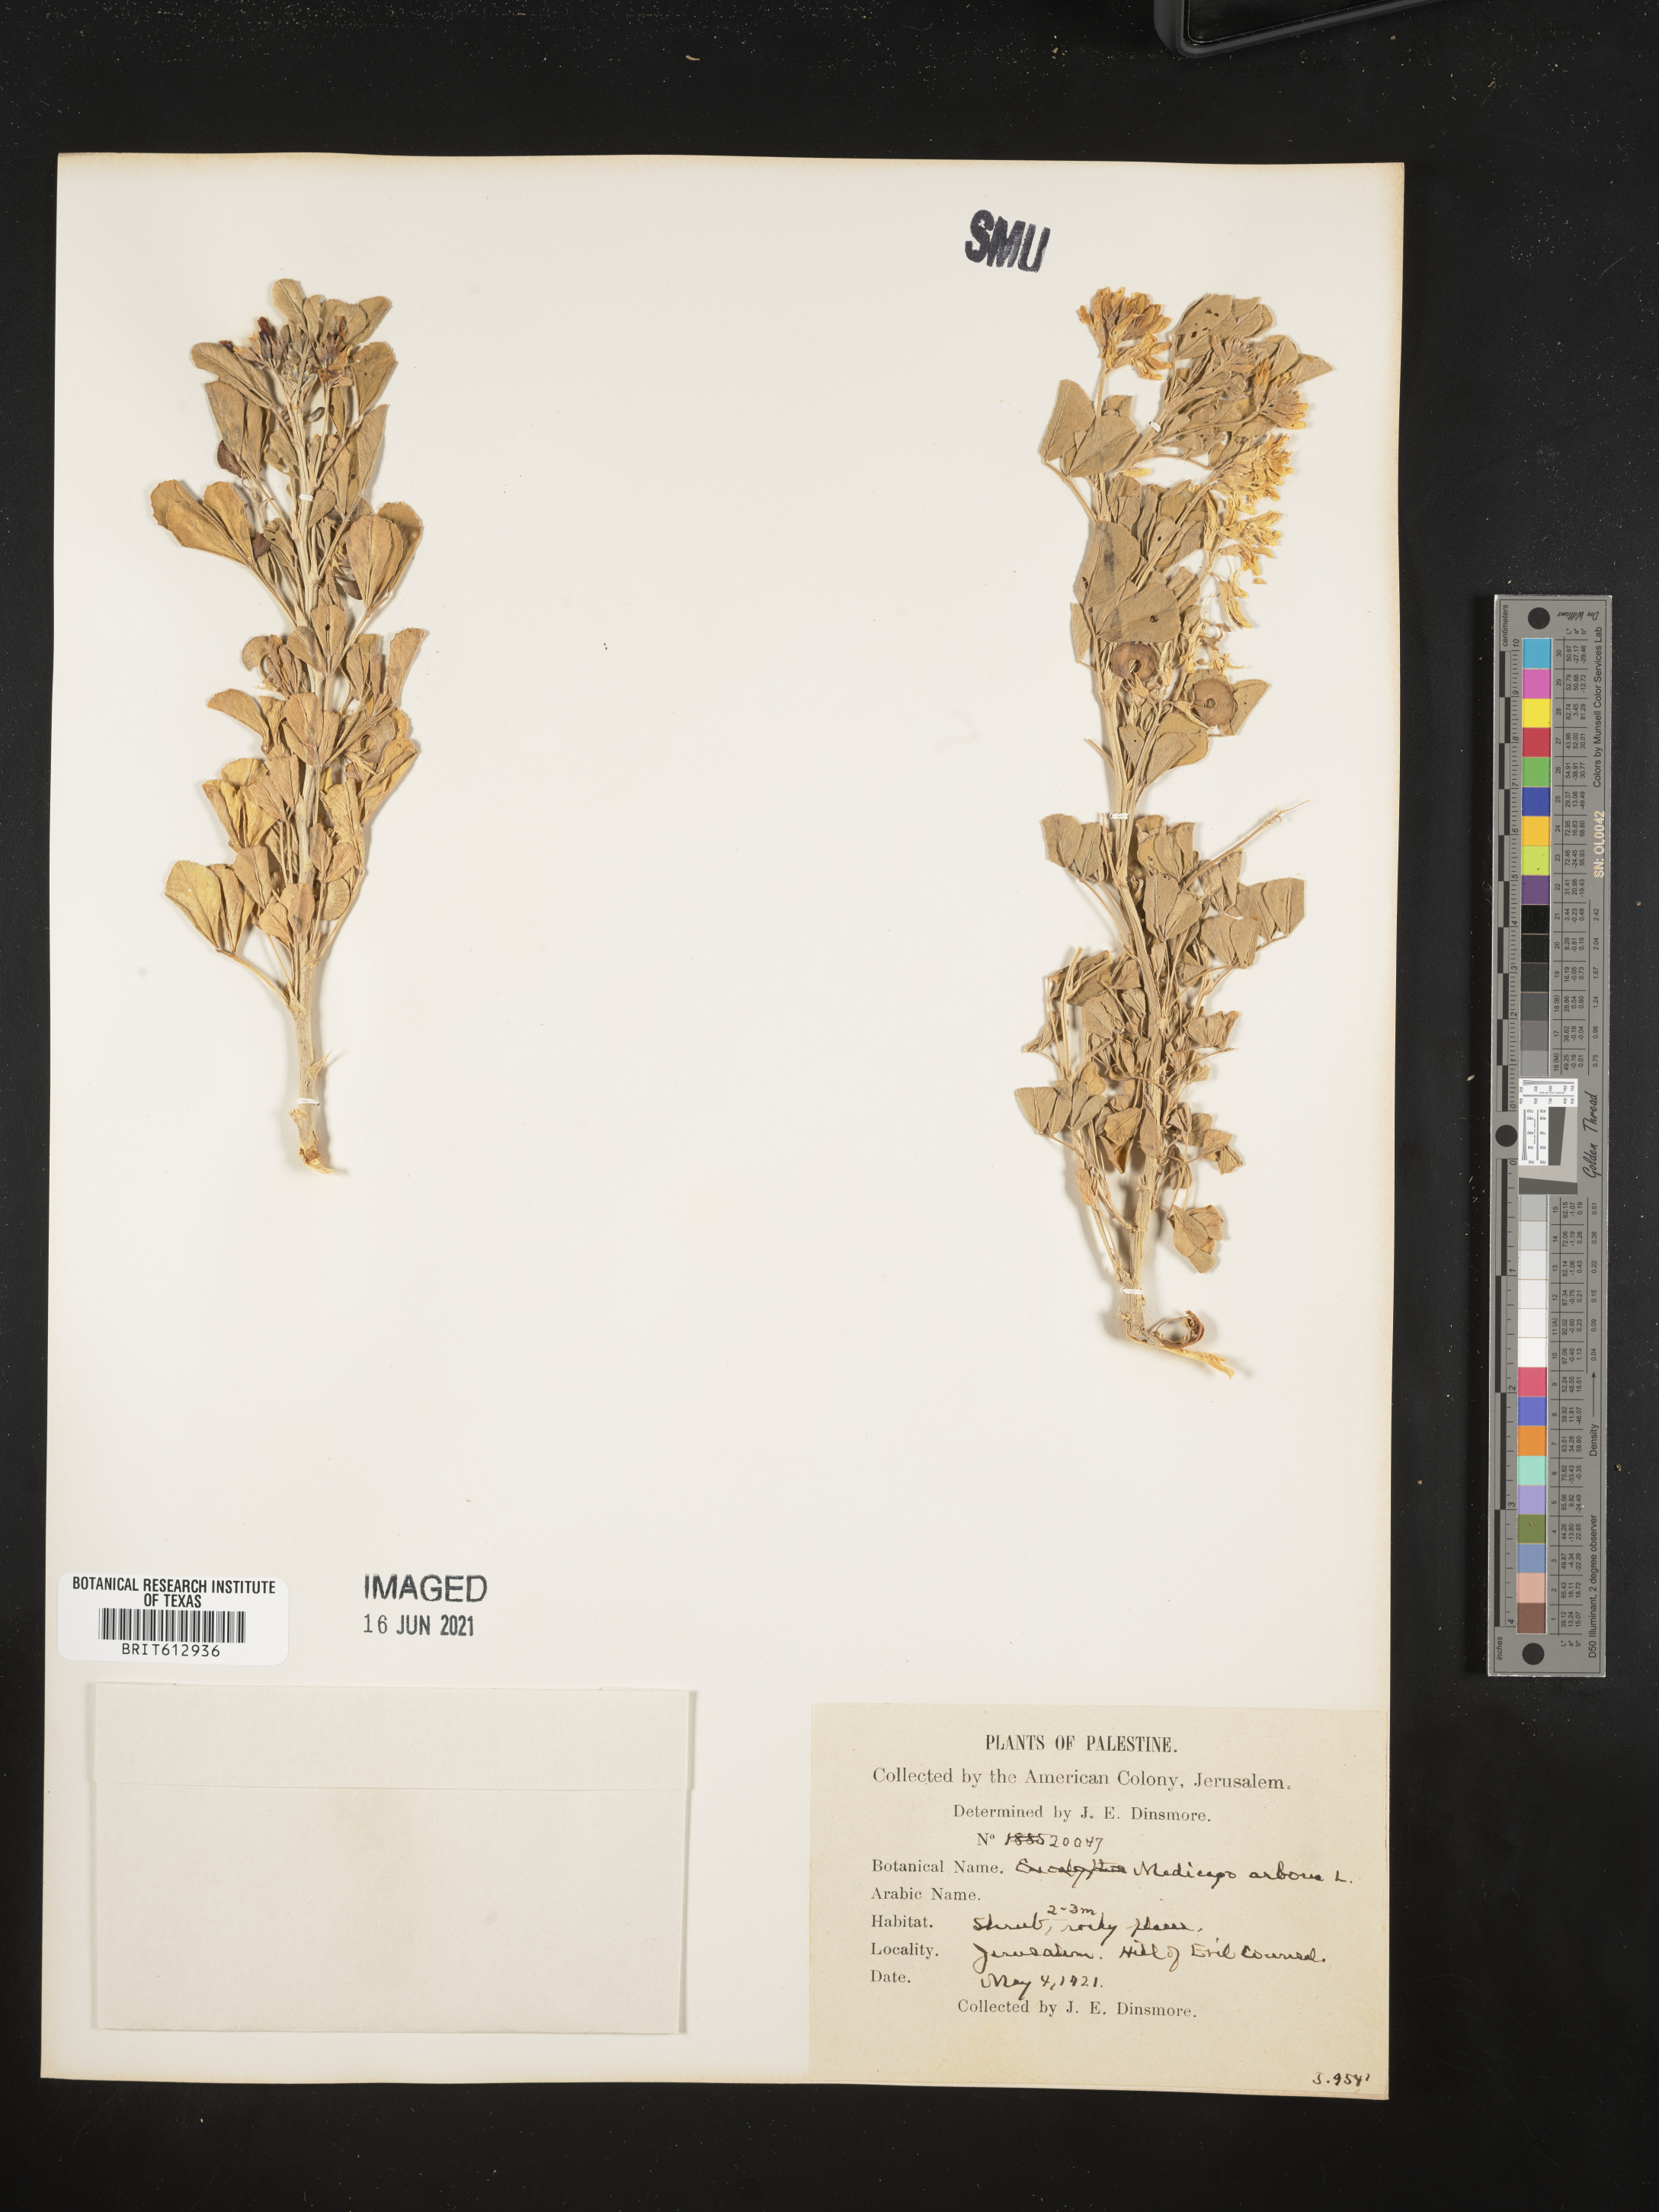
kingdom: Plantae
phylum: Tracheophyta
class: Magnoliopsida
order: Fabales
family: Fabaceae
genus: Medicago
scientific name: Medicago arborea
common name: Moon trefoil
